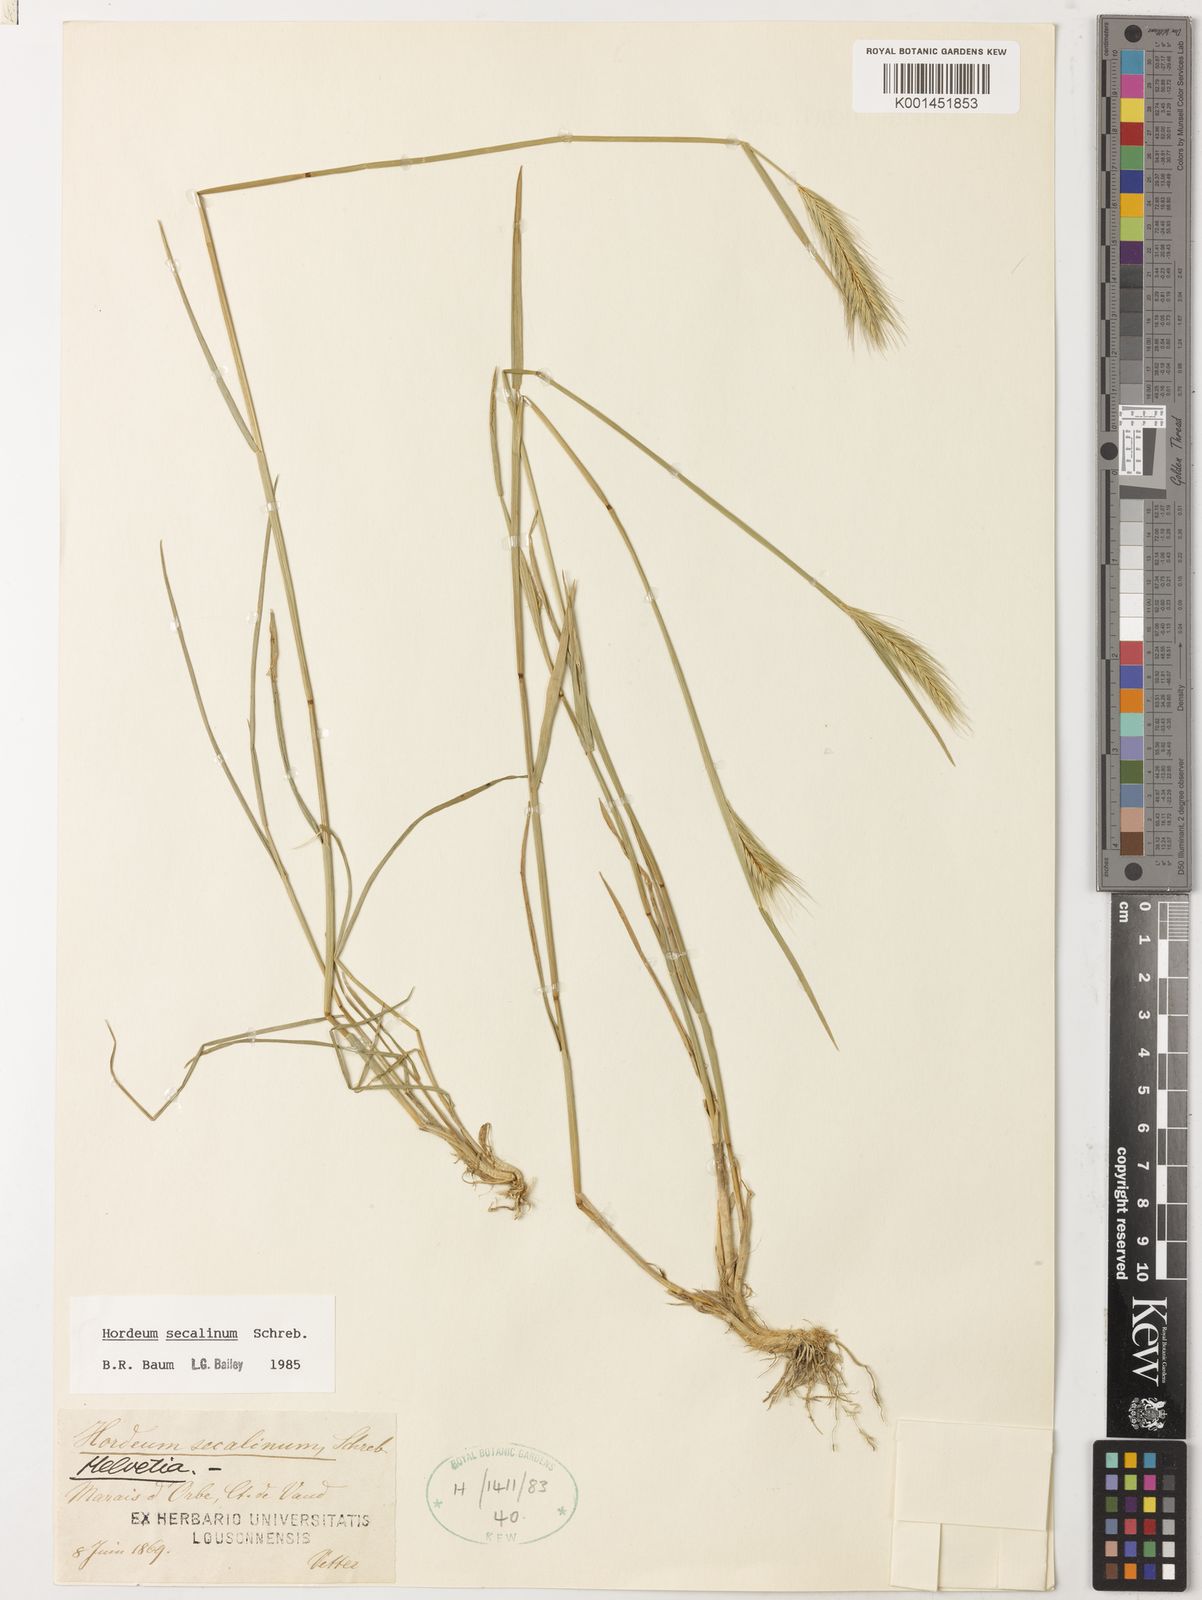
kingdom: Plantae
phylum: Tracheophyta
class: Liliopsida
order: Poales
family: Poaceae
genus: Hordeum
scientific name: Hordeum secalinum
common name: Meadow barley
